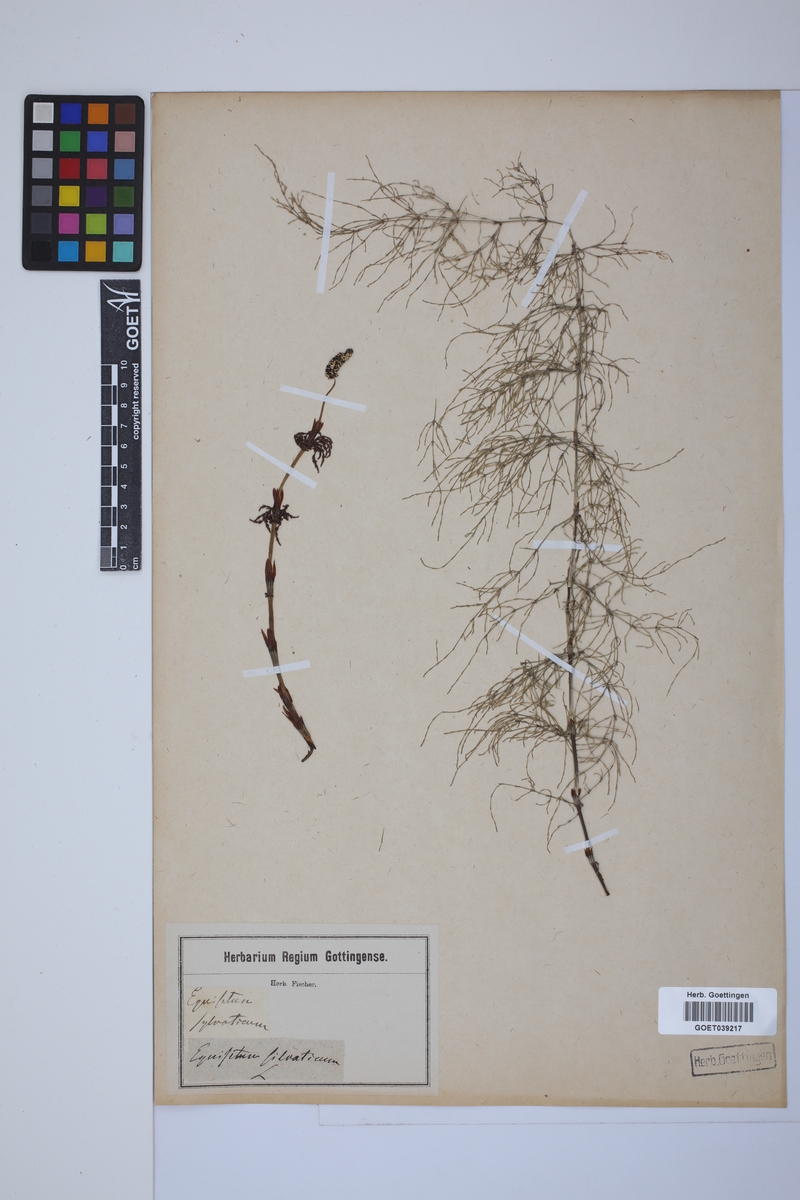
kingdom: Plantae
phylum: Tracheophyta
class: Polypodiopsida
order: Equisetales
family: Equisetaceae
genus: Equisetum
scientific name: Equisetum sylvaticum
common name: Wood horsetail
